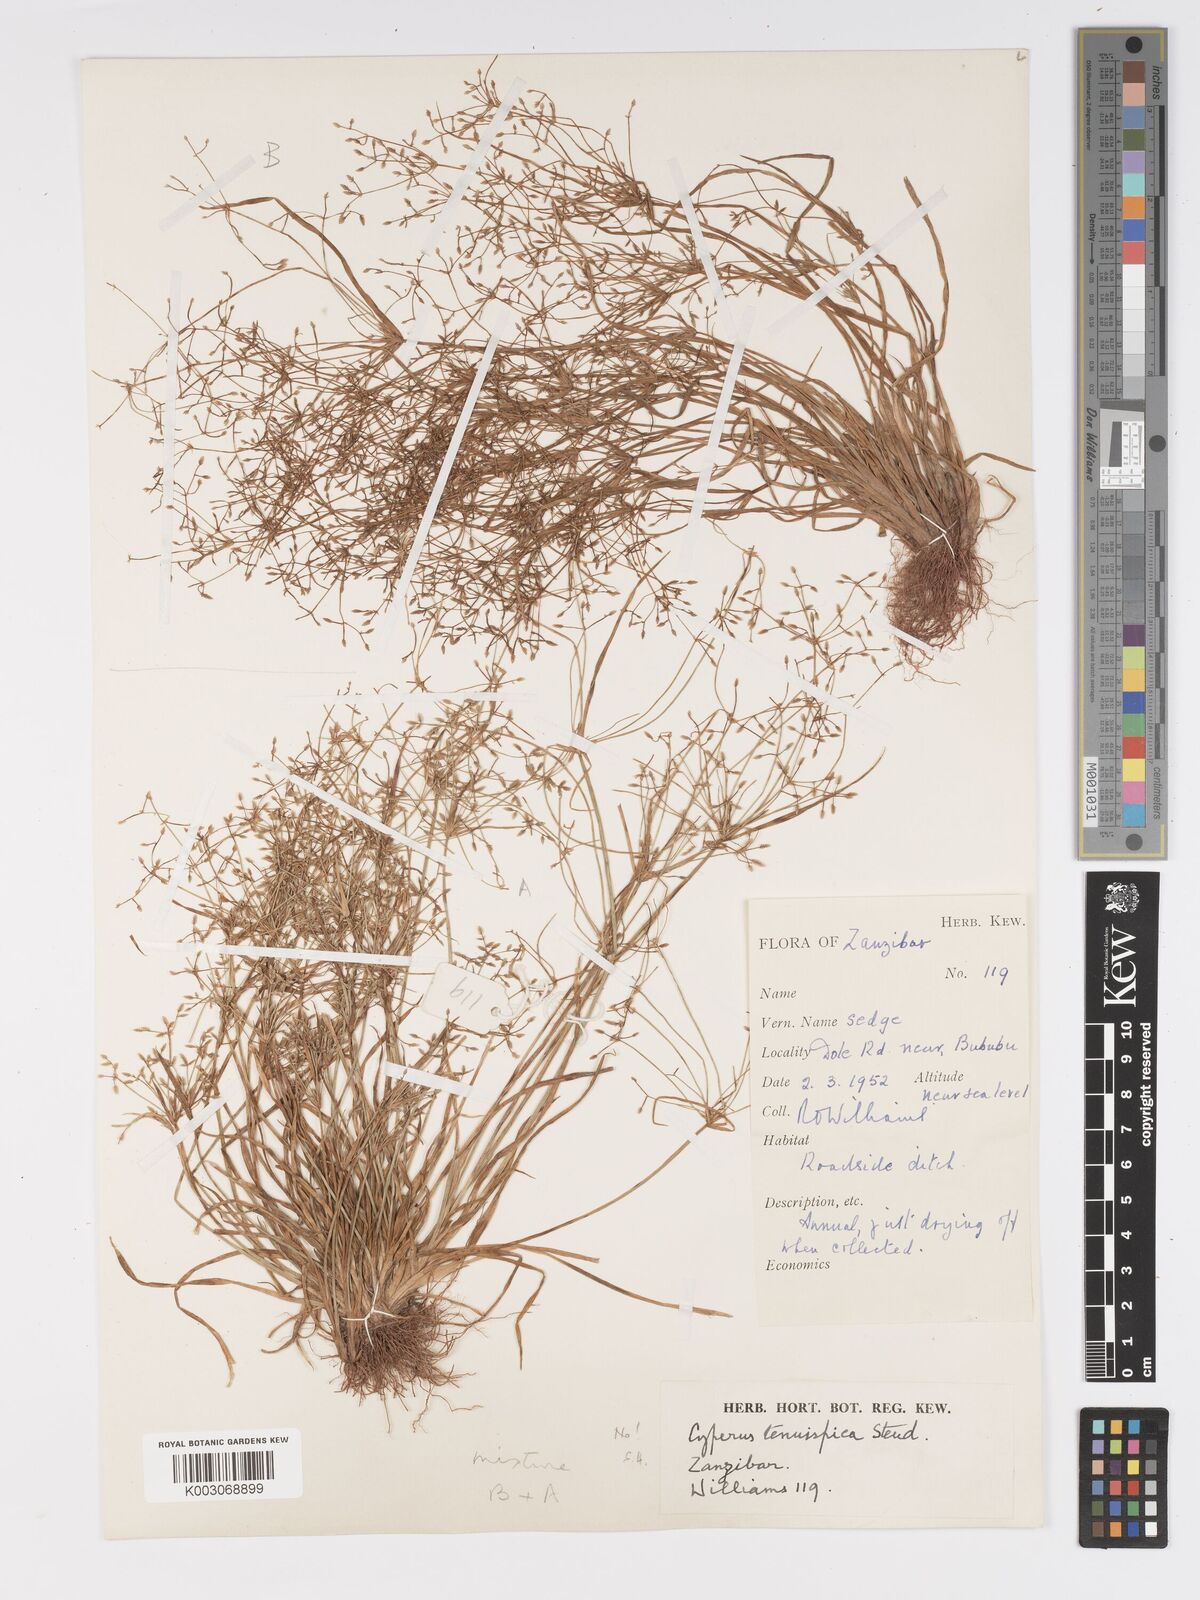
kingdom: Plantae
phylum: Tracheophyta
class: Liliopsida
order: Poales
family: Cyperaceae
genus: Cyperus
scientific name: Cyperus tenuispica
